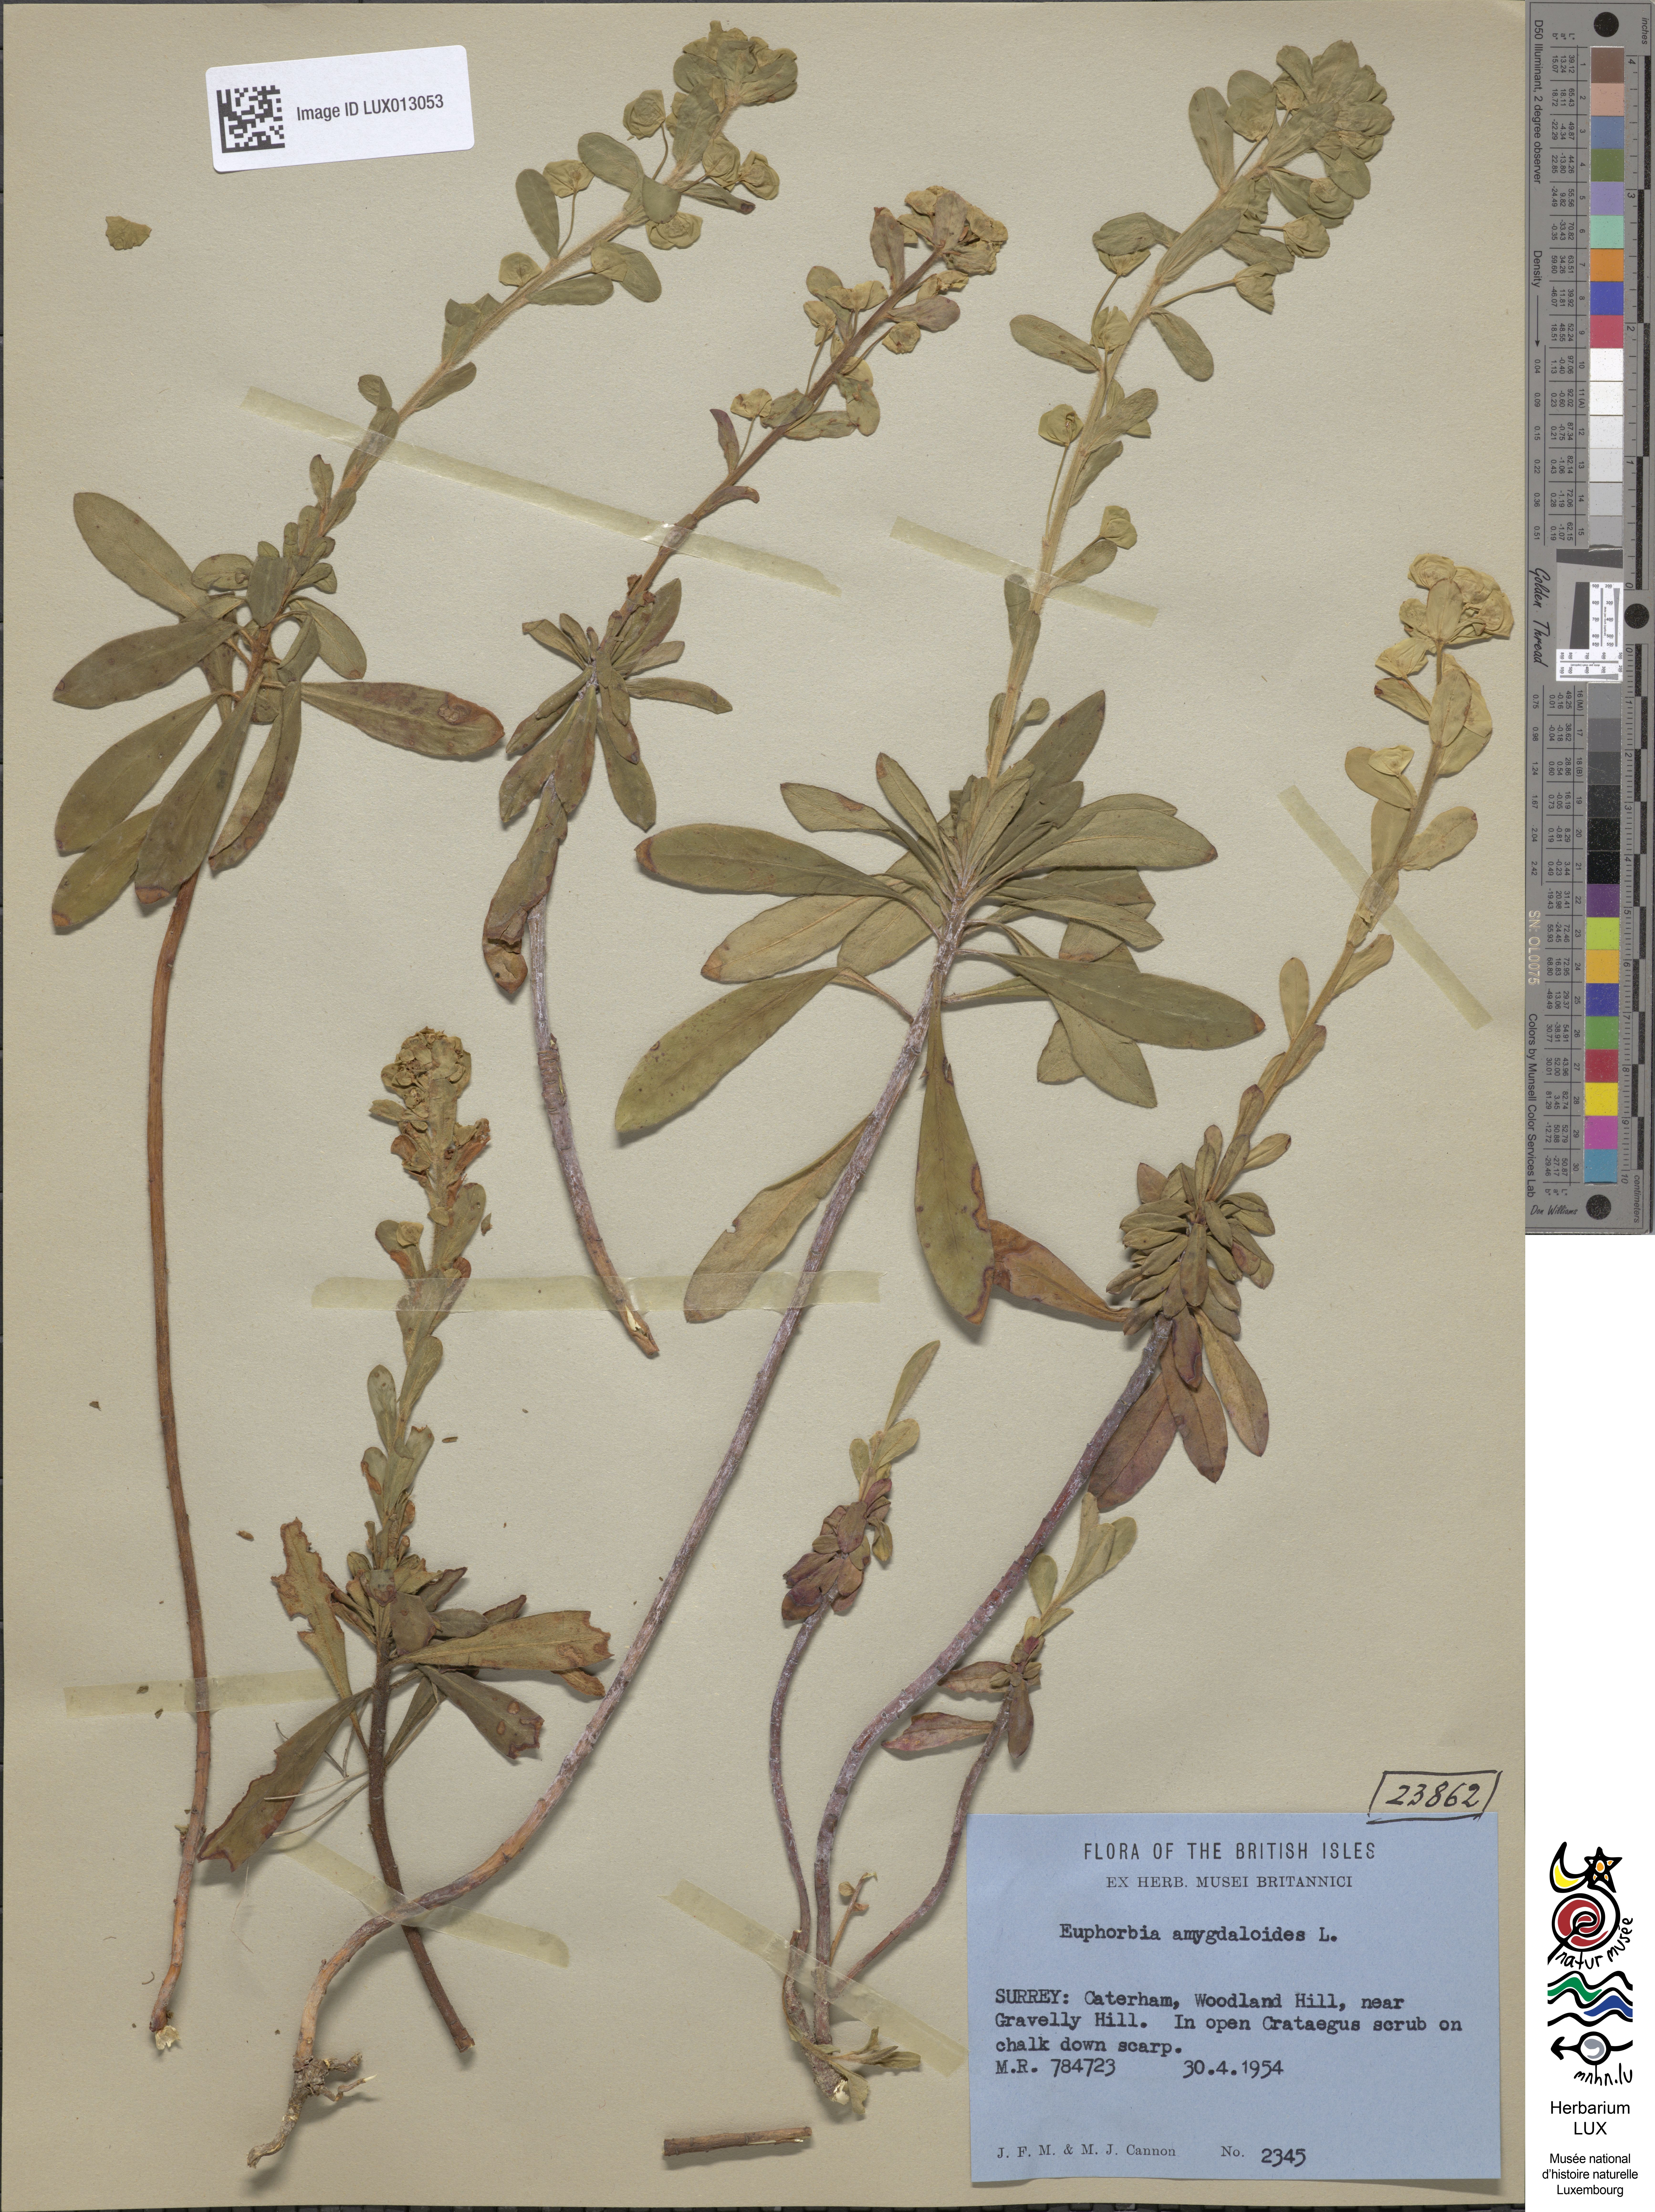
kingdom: Plantae
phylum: Tracheophyta
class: Magnoliopsida
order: Malpighiales
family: Euphorbiaceae
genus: Euphorbia
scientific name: Euphorbia amygdaloides
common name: Wood spurge
